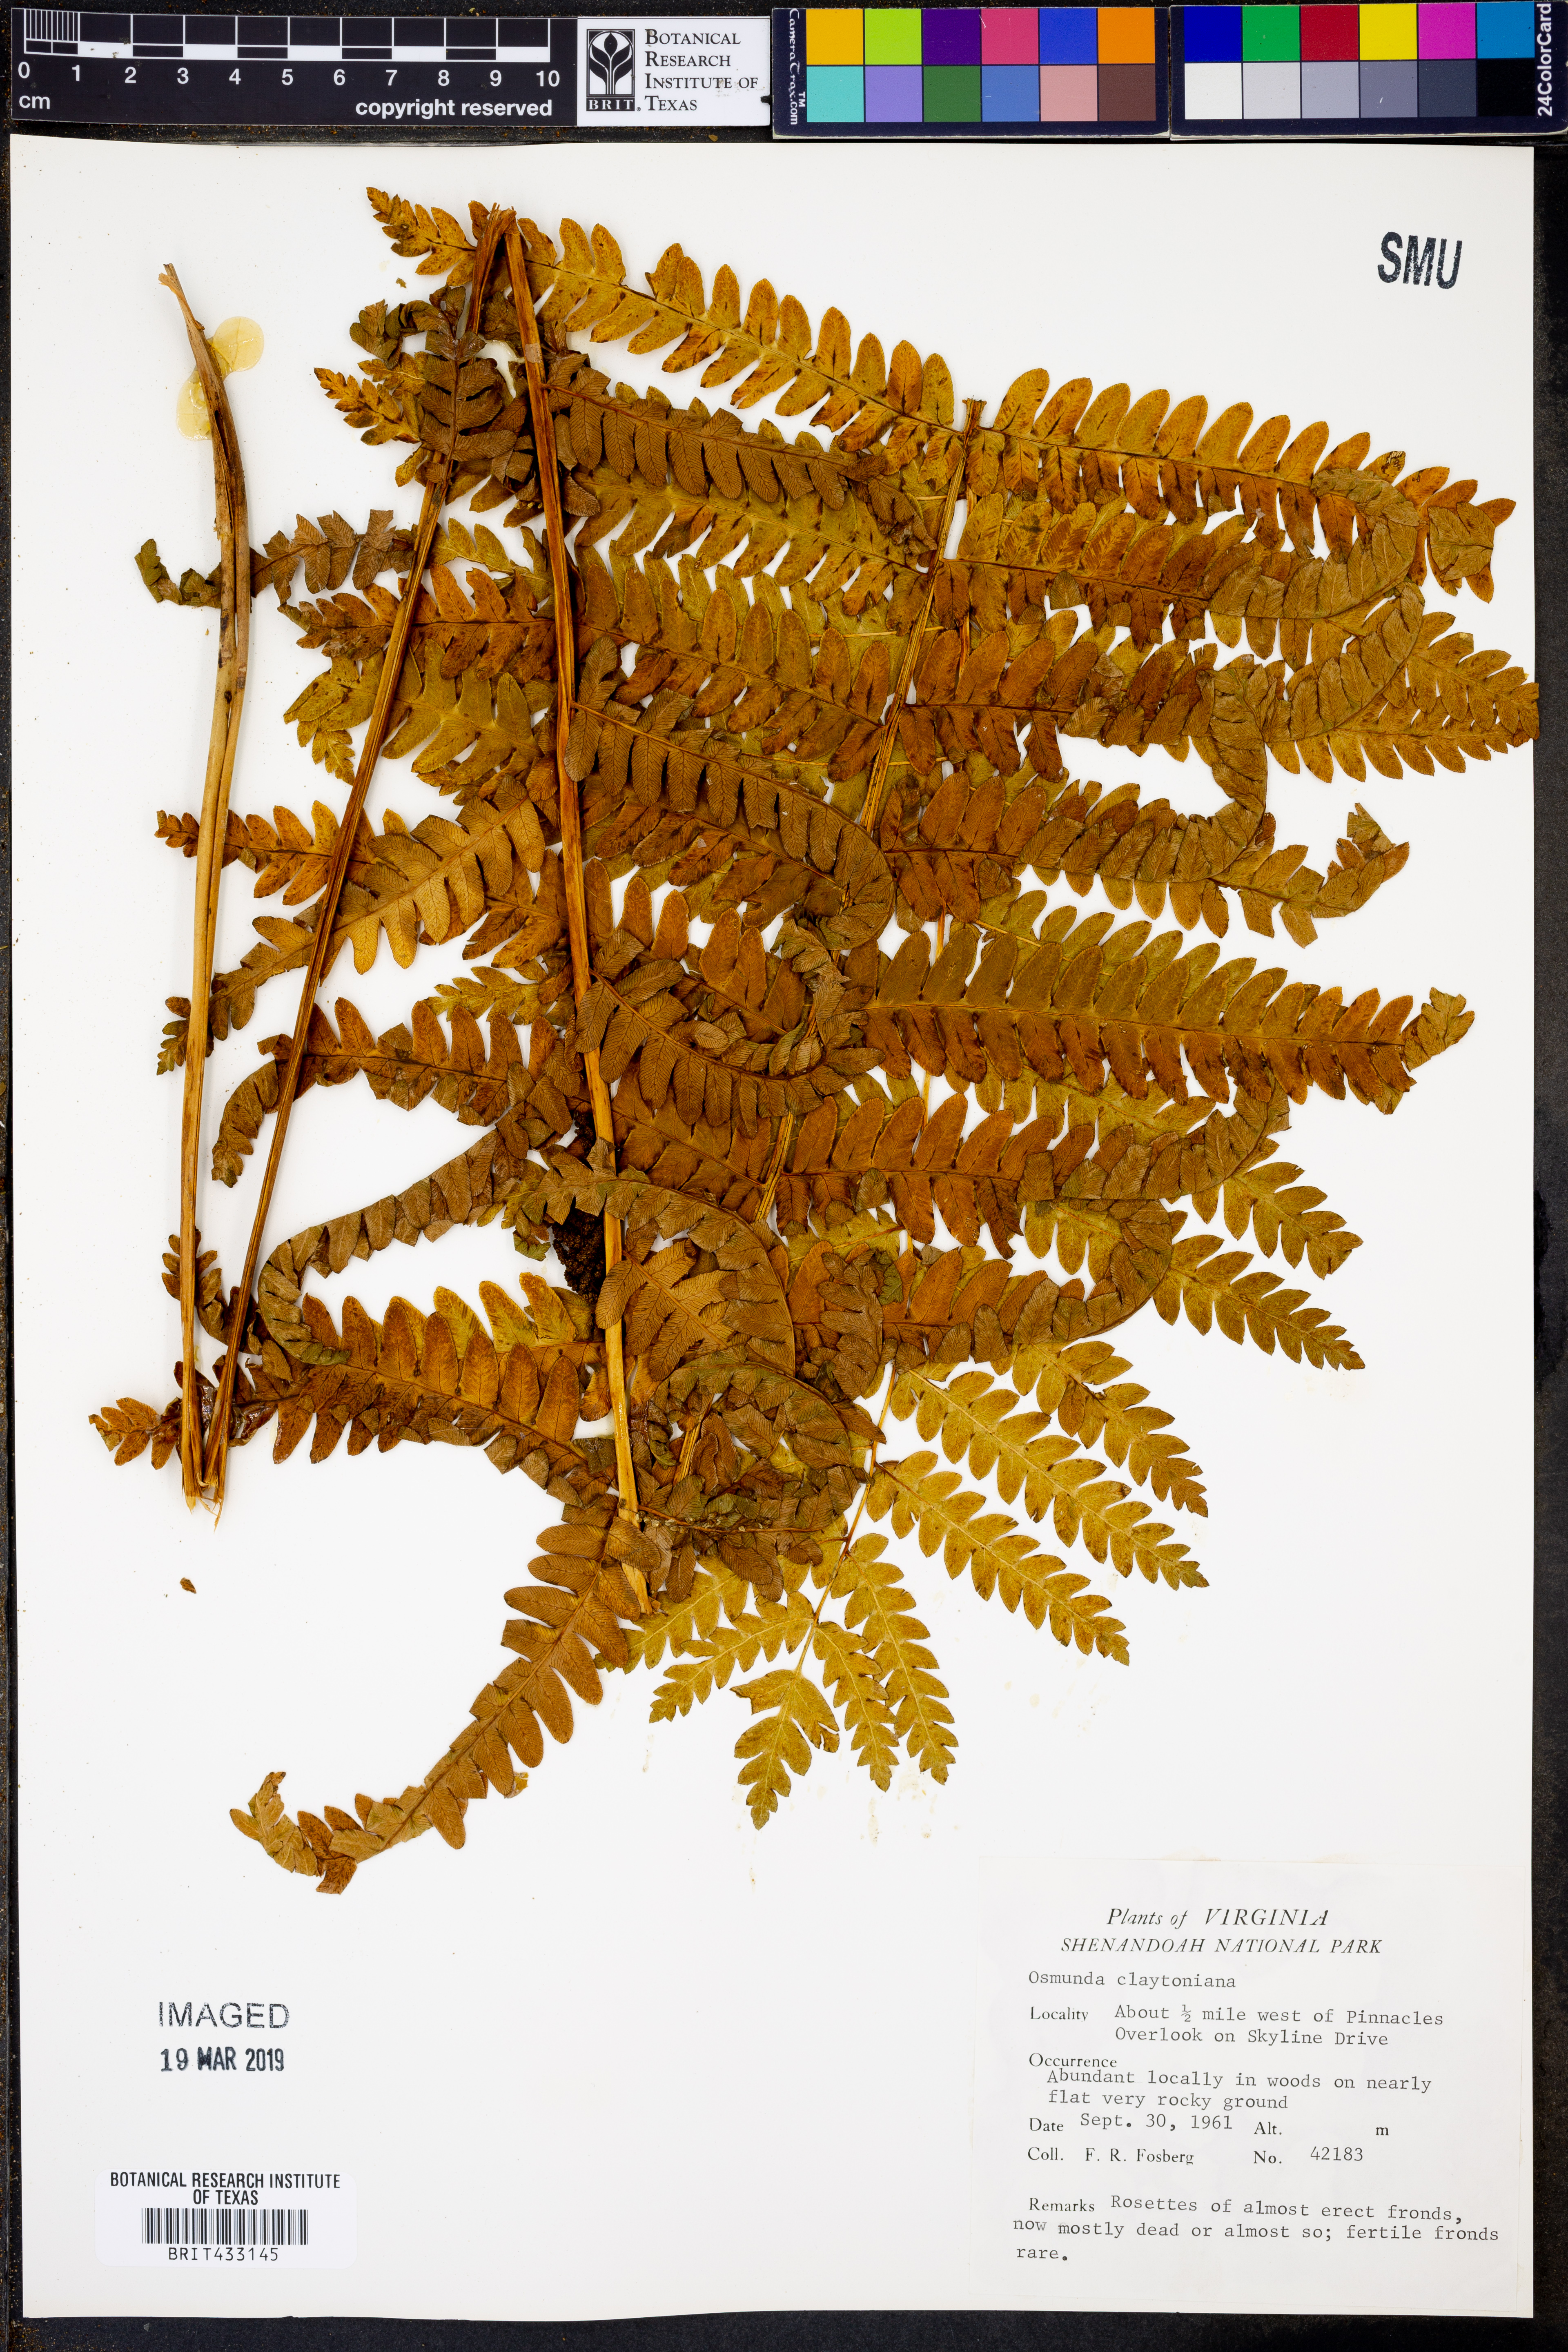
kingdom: Plantae
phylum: Tracheophyta
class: Polypodiopsida
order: Osmundales
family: Osmundaceae
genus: Claytosmunda
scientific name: Claytosmunda claytoniana
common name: Clayton's fern
